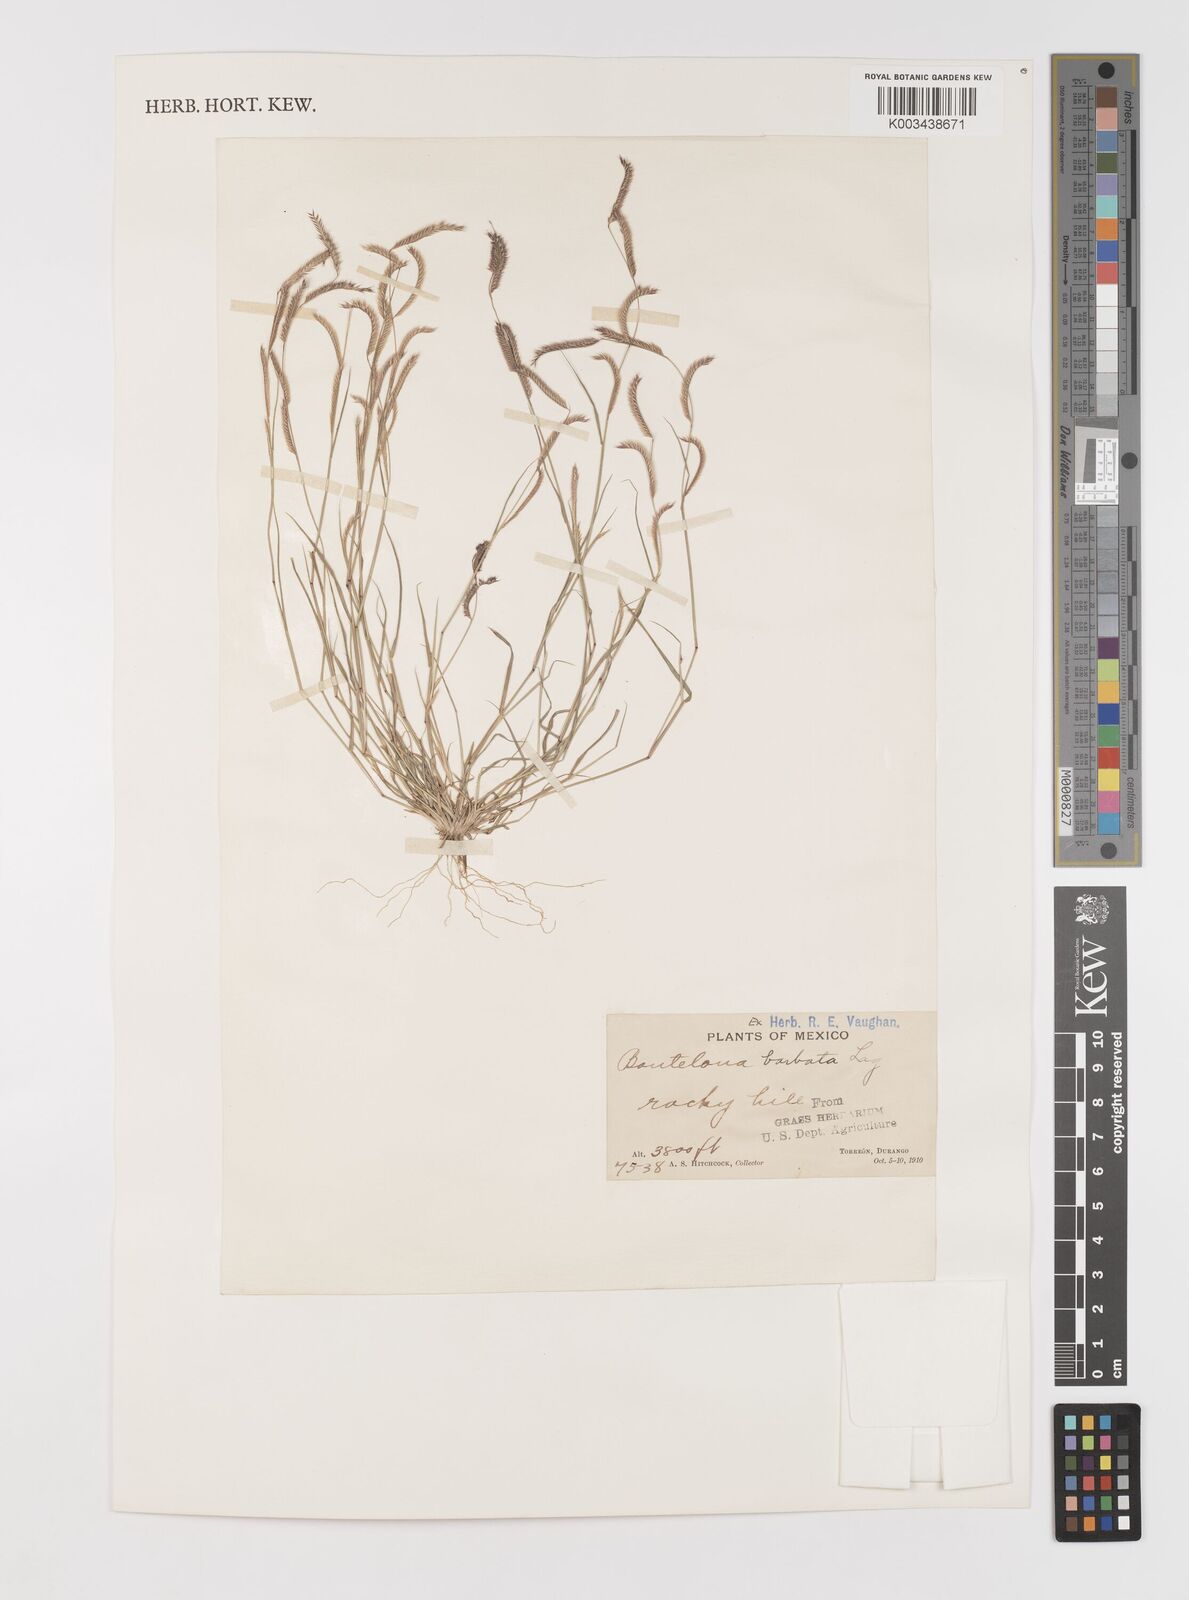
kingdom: Plantae
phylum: Tracheophyta
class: Liliopsida
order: Poales
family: Poaceae
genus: Bouteloua
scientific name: Bouteloua
